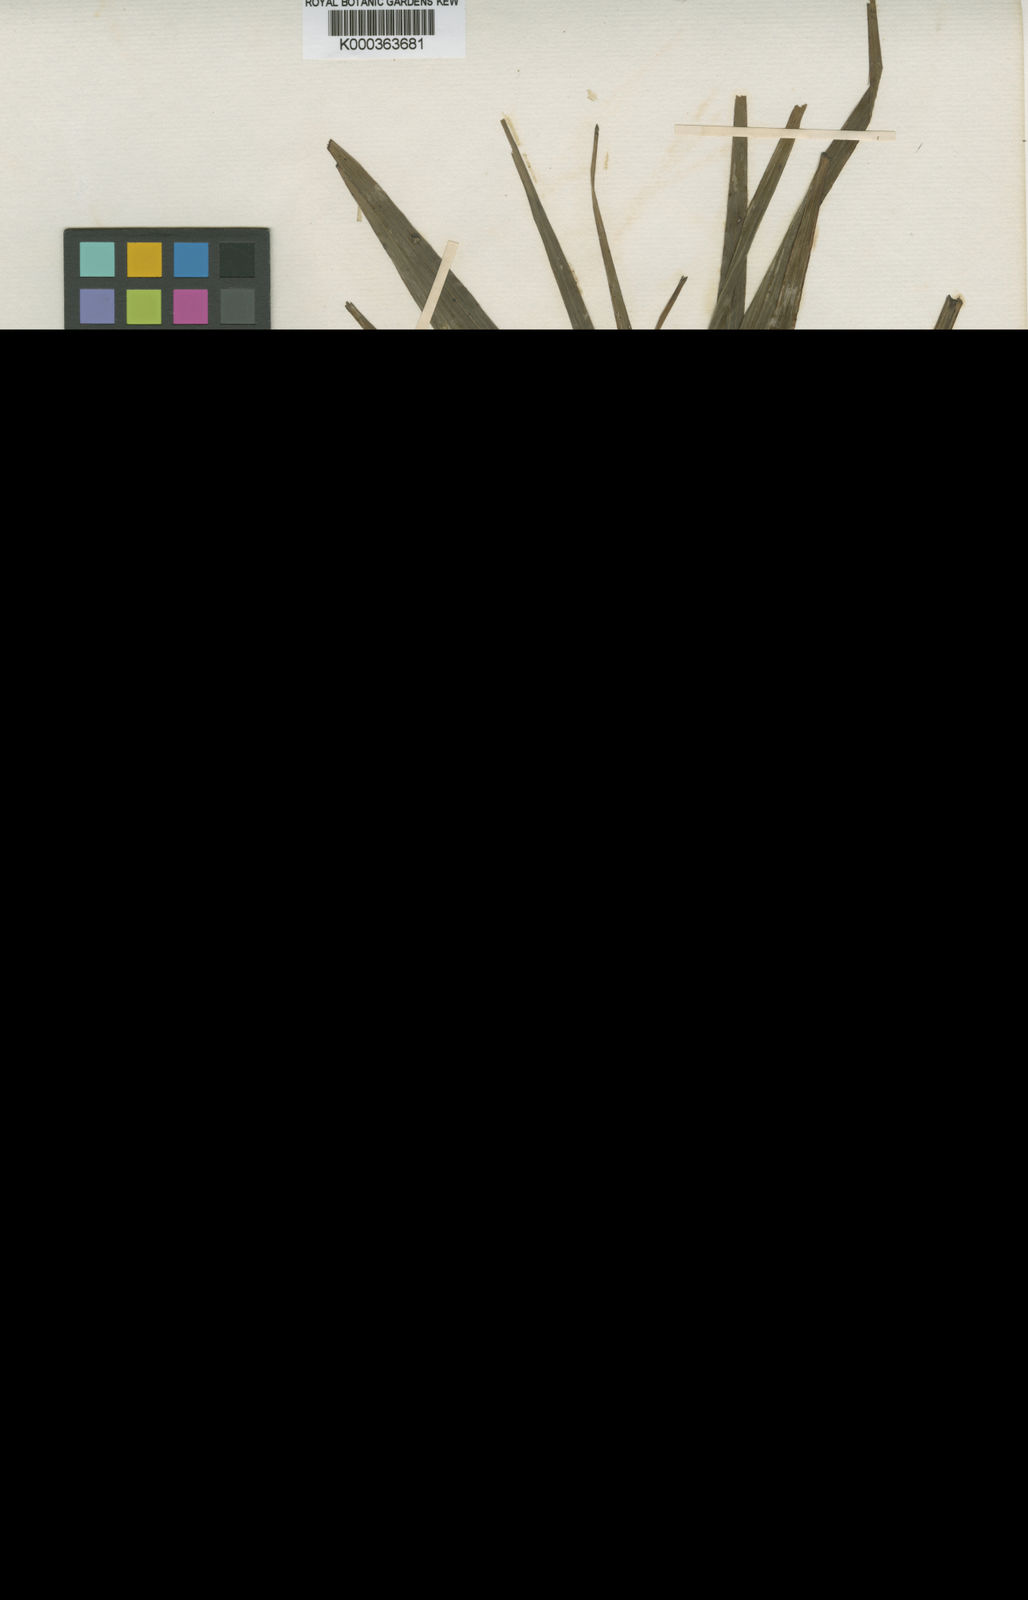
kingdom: Plantae
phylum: Tracheophyta
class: Liliopsida
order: Asparagales
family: Orchidaceae
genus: Apostasia
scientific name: Apostasia nuda
